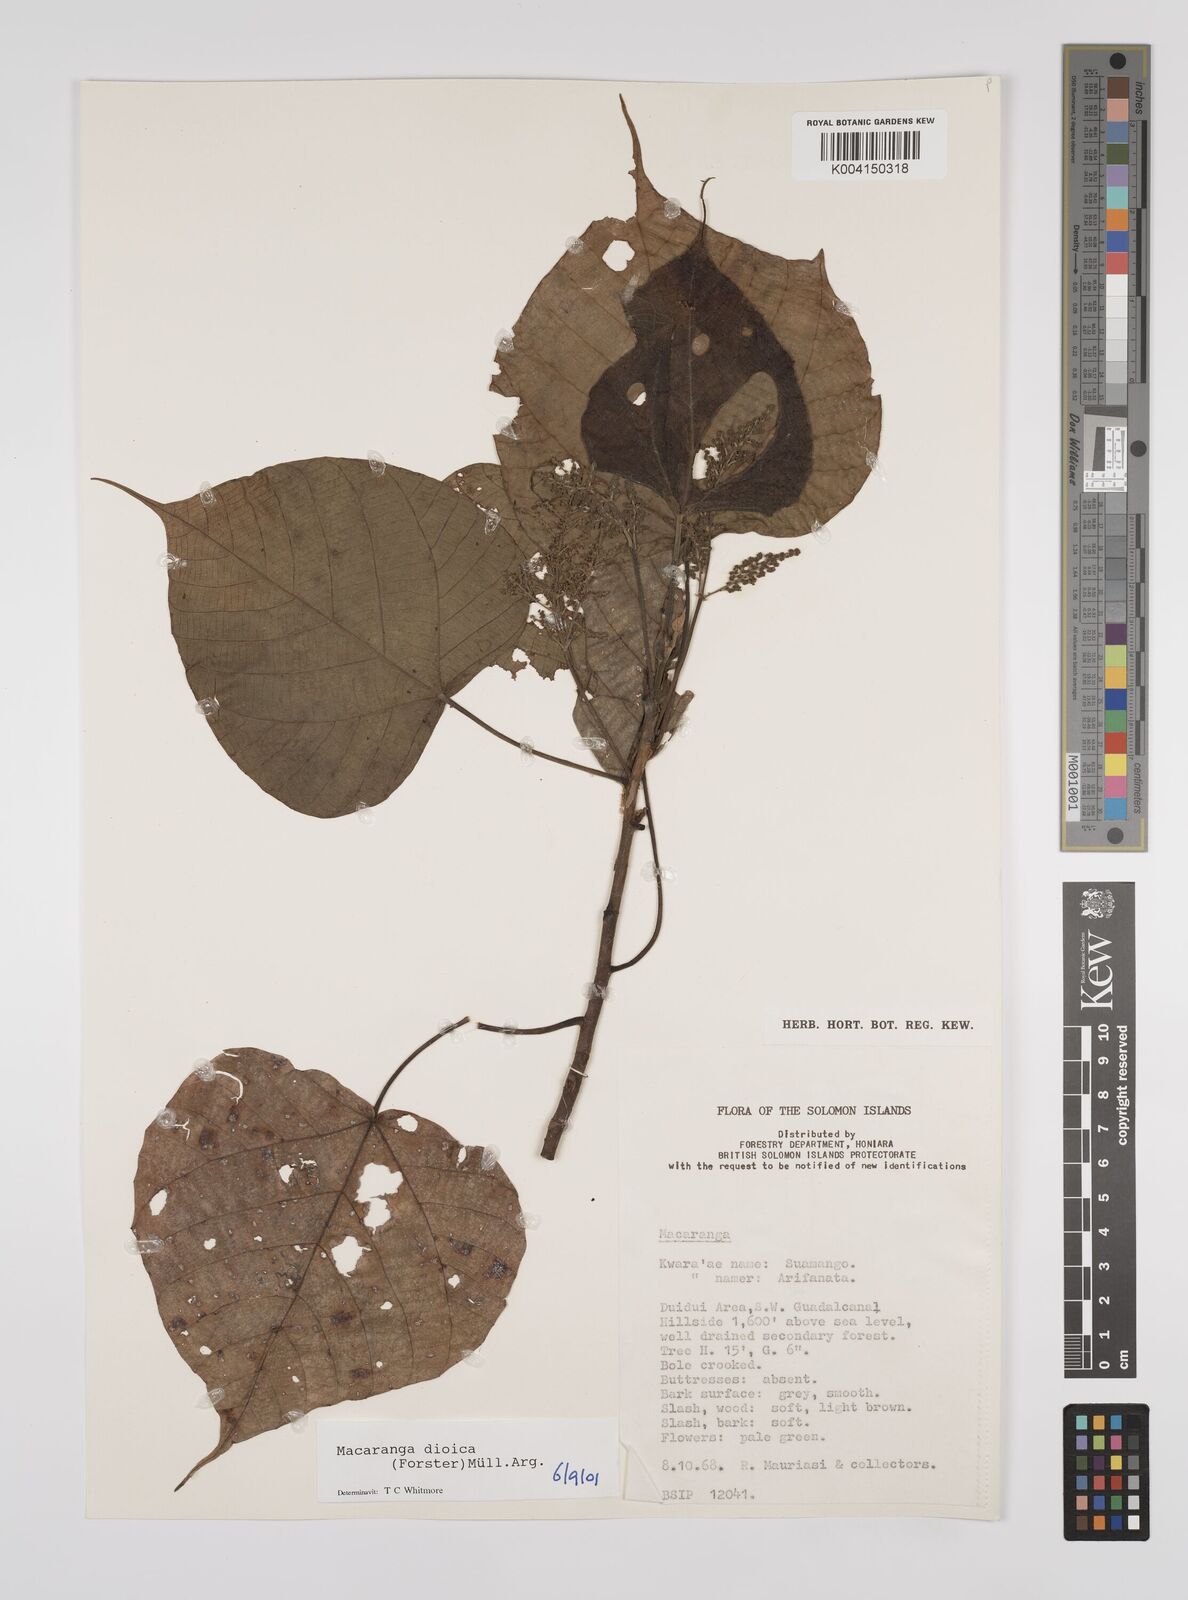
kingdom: Plantae
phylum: Tracheophyta
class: Magnoliopsida
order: Malpighiales
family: Euphorbiaceae
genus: Macaranga
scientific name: Macaranga dioica
